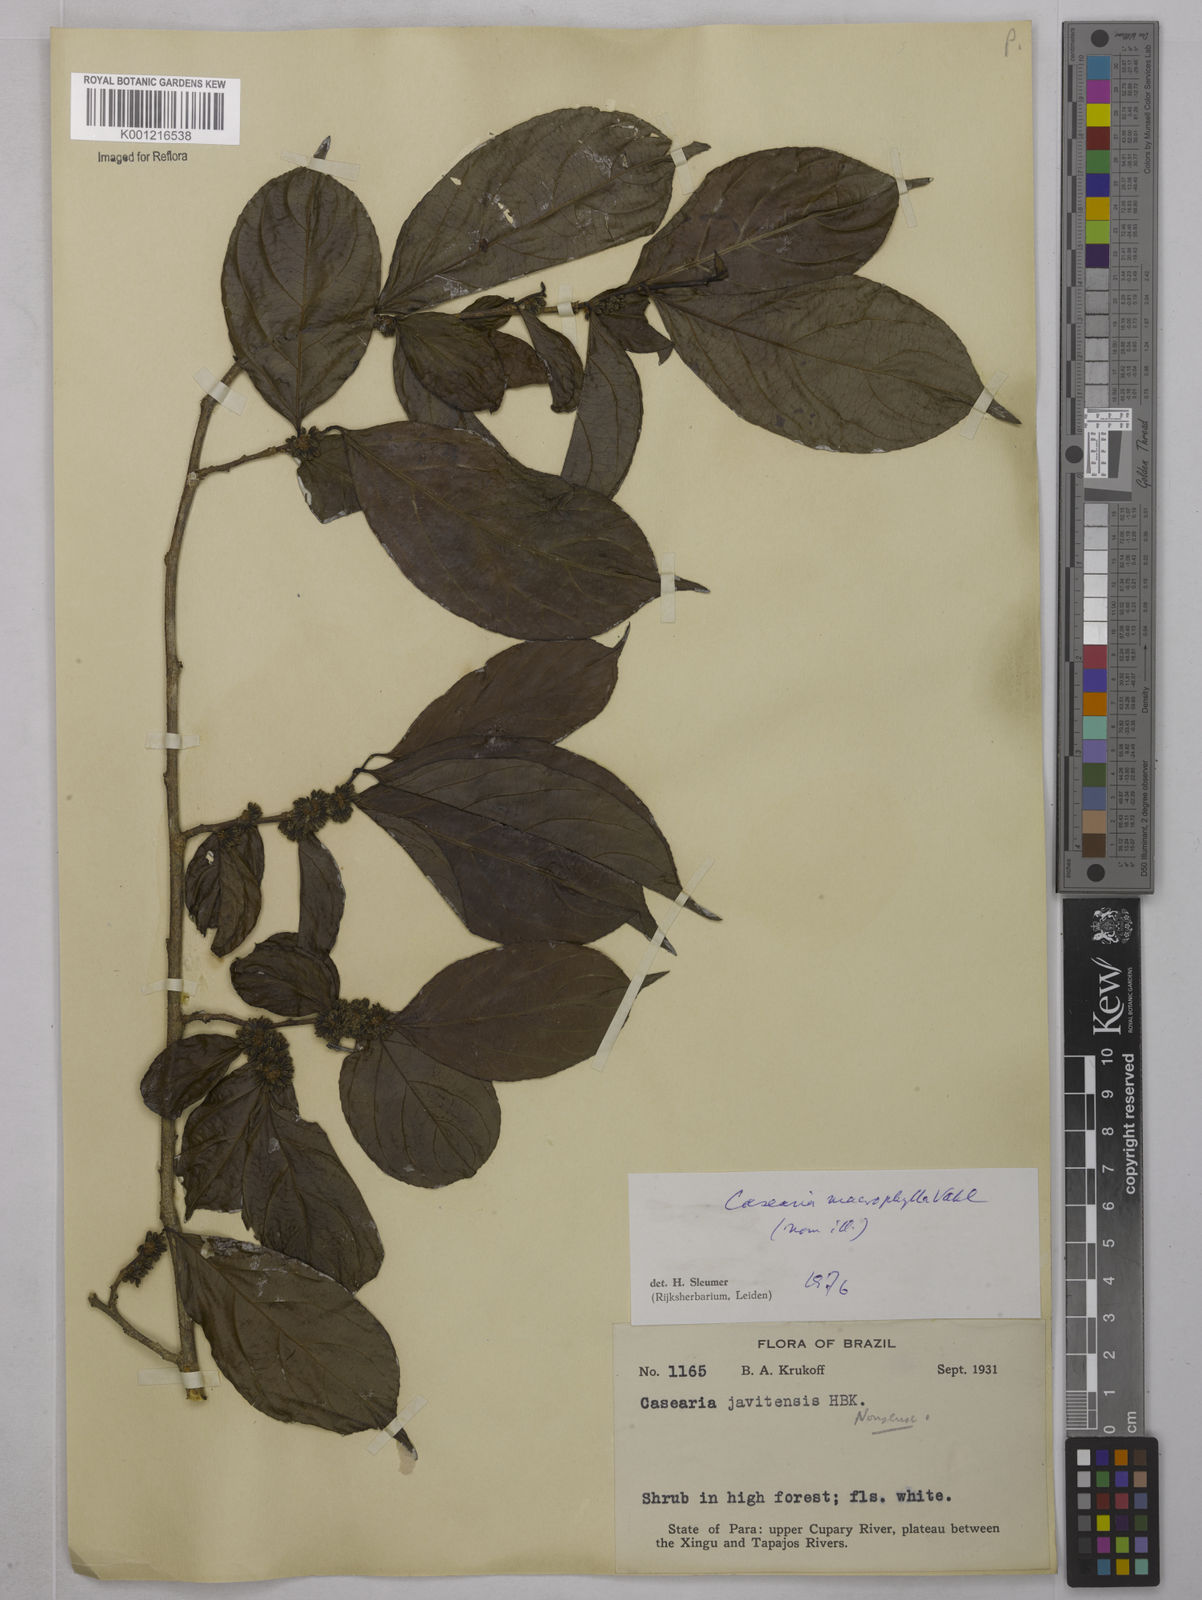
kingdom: Plantae
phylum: Tracheophyta
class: Magnoliopsida
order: Malpighiales
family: Salicaceae
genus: Casearia
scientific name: Casearia pitumba
